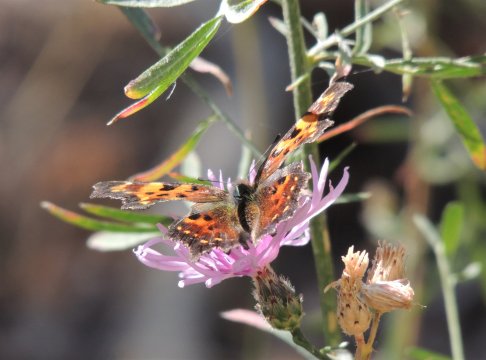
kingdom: Animalia
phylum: Arthropoda
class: Insecta
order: Lepidoptera
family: Nymphalidae
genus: Polygonia
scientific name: Polygonia faunus
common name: Green Comma
